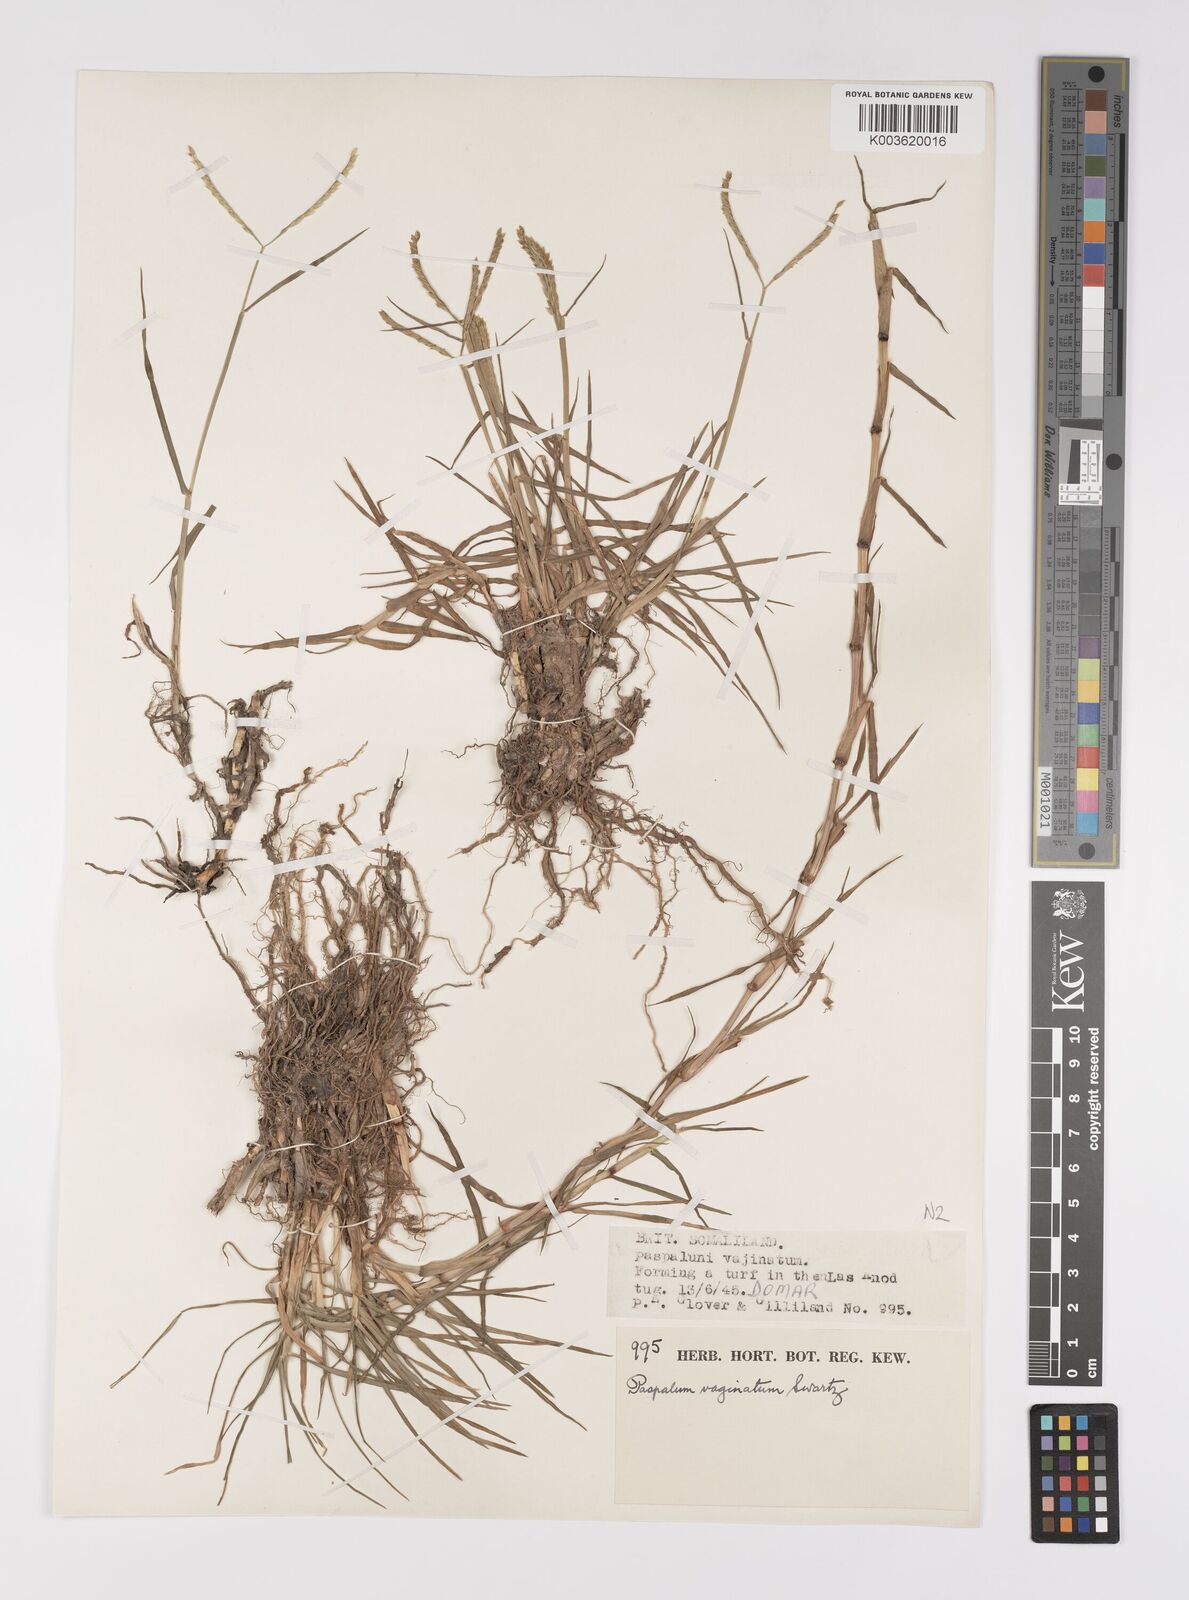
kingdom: Plantae
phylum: Tracheophyta
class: Liliopsida
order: Poales
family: Poaceae
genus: Paspalum
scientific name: Paspalum decumbens
